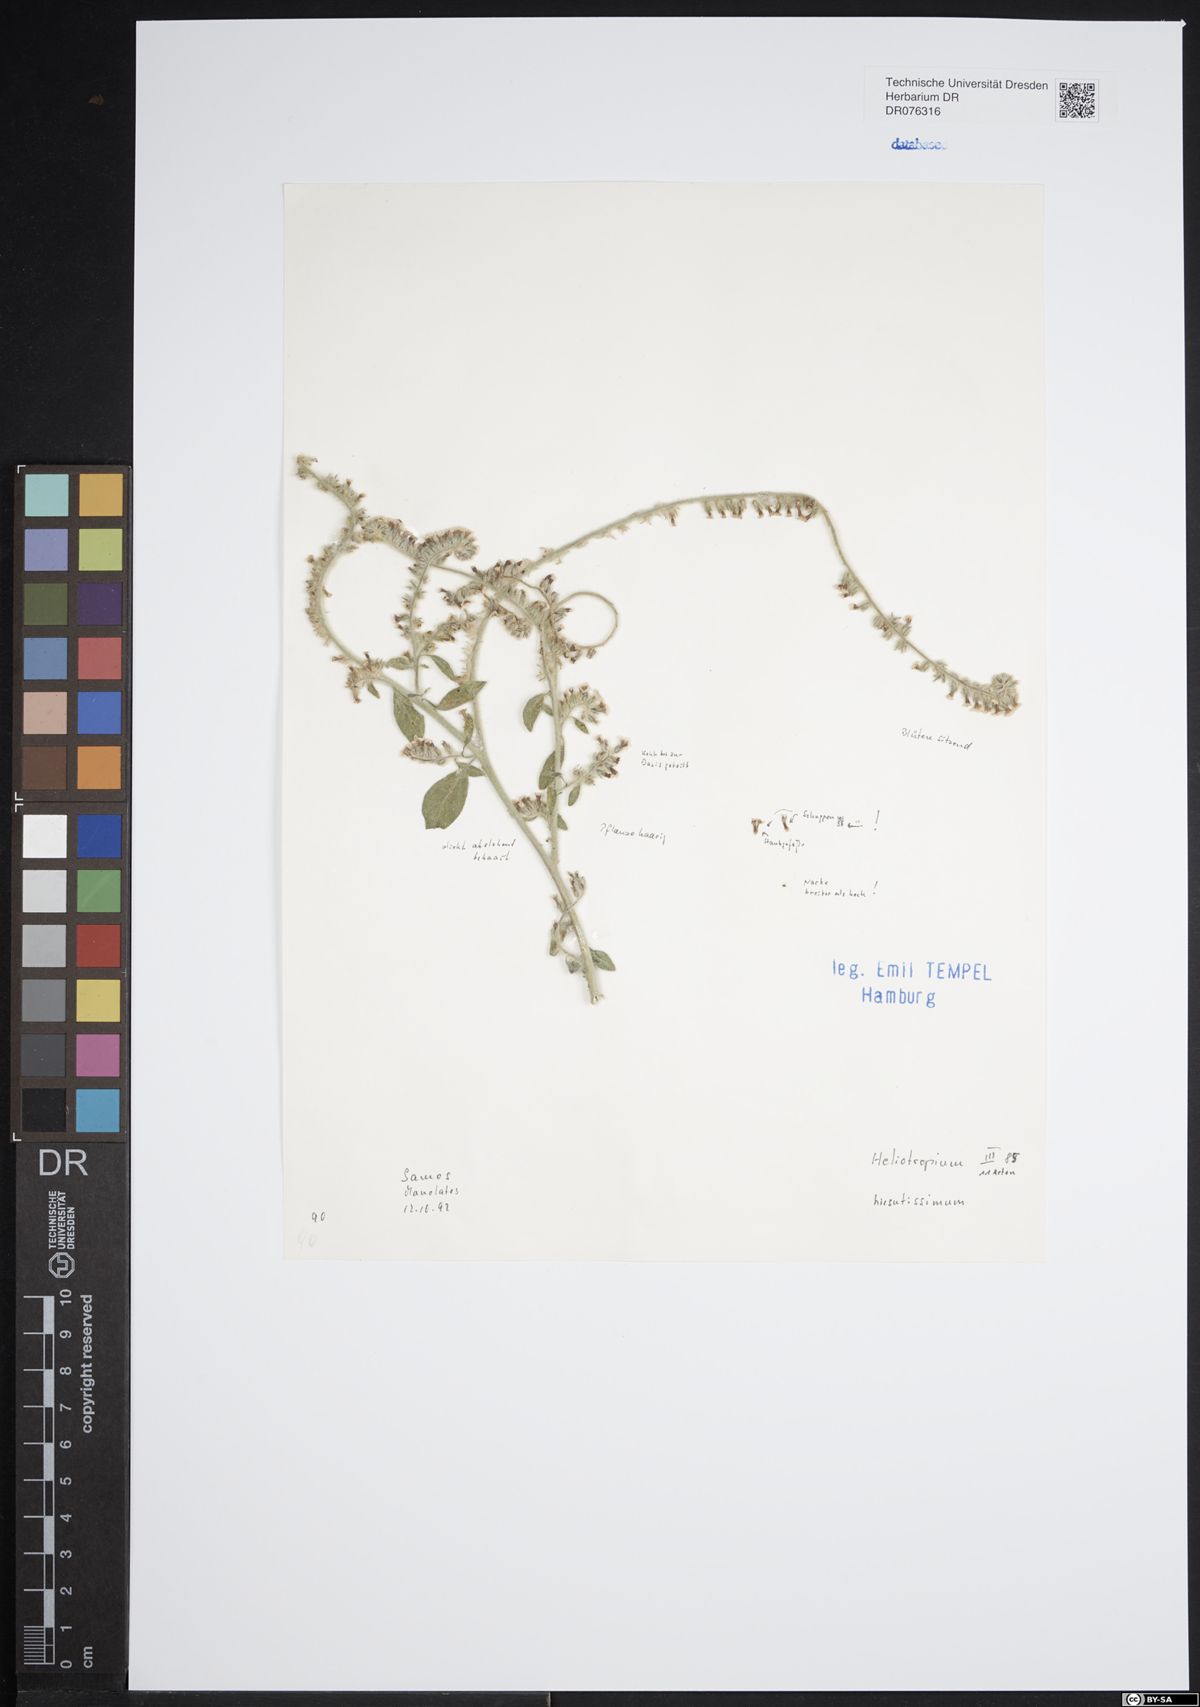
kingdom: Plantae
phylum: Tracheophyta
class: Magnoliopsida
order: Boraginales
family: Heliotropiaceae
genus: Heliotropium
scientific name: Heliotropium hirsutissimum
